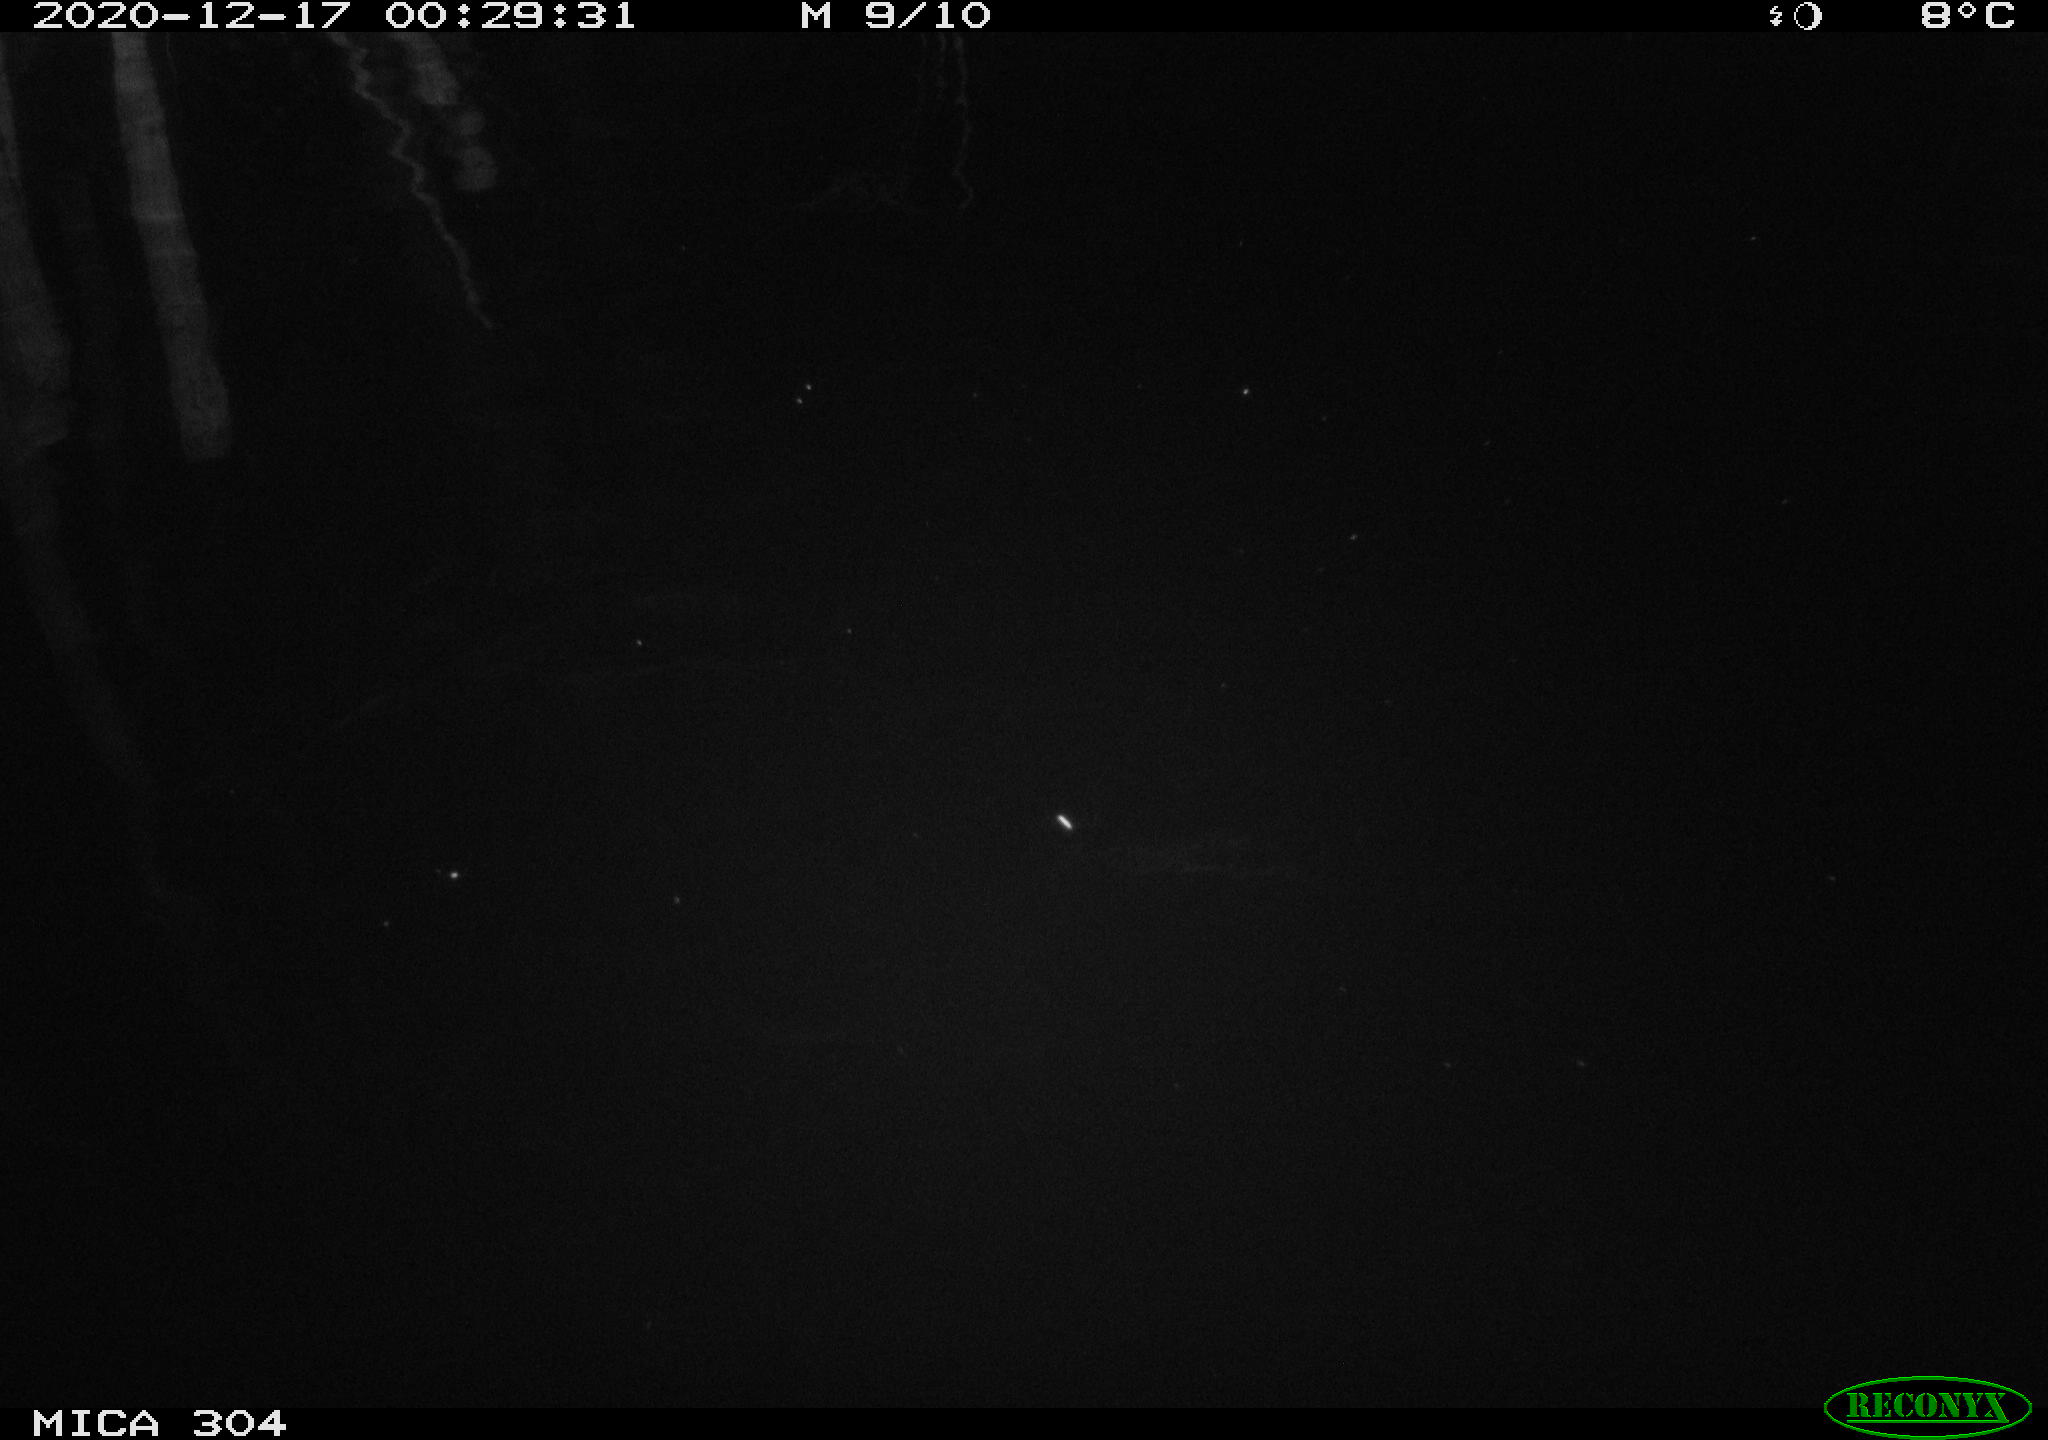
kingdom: Animalia
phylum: Chordata
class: Aves
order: Gruiformes
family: Rallidae
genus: Gallinula
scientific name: Gallinula chloropus
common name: Common moorhen
